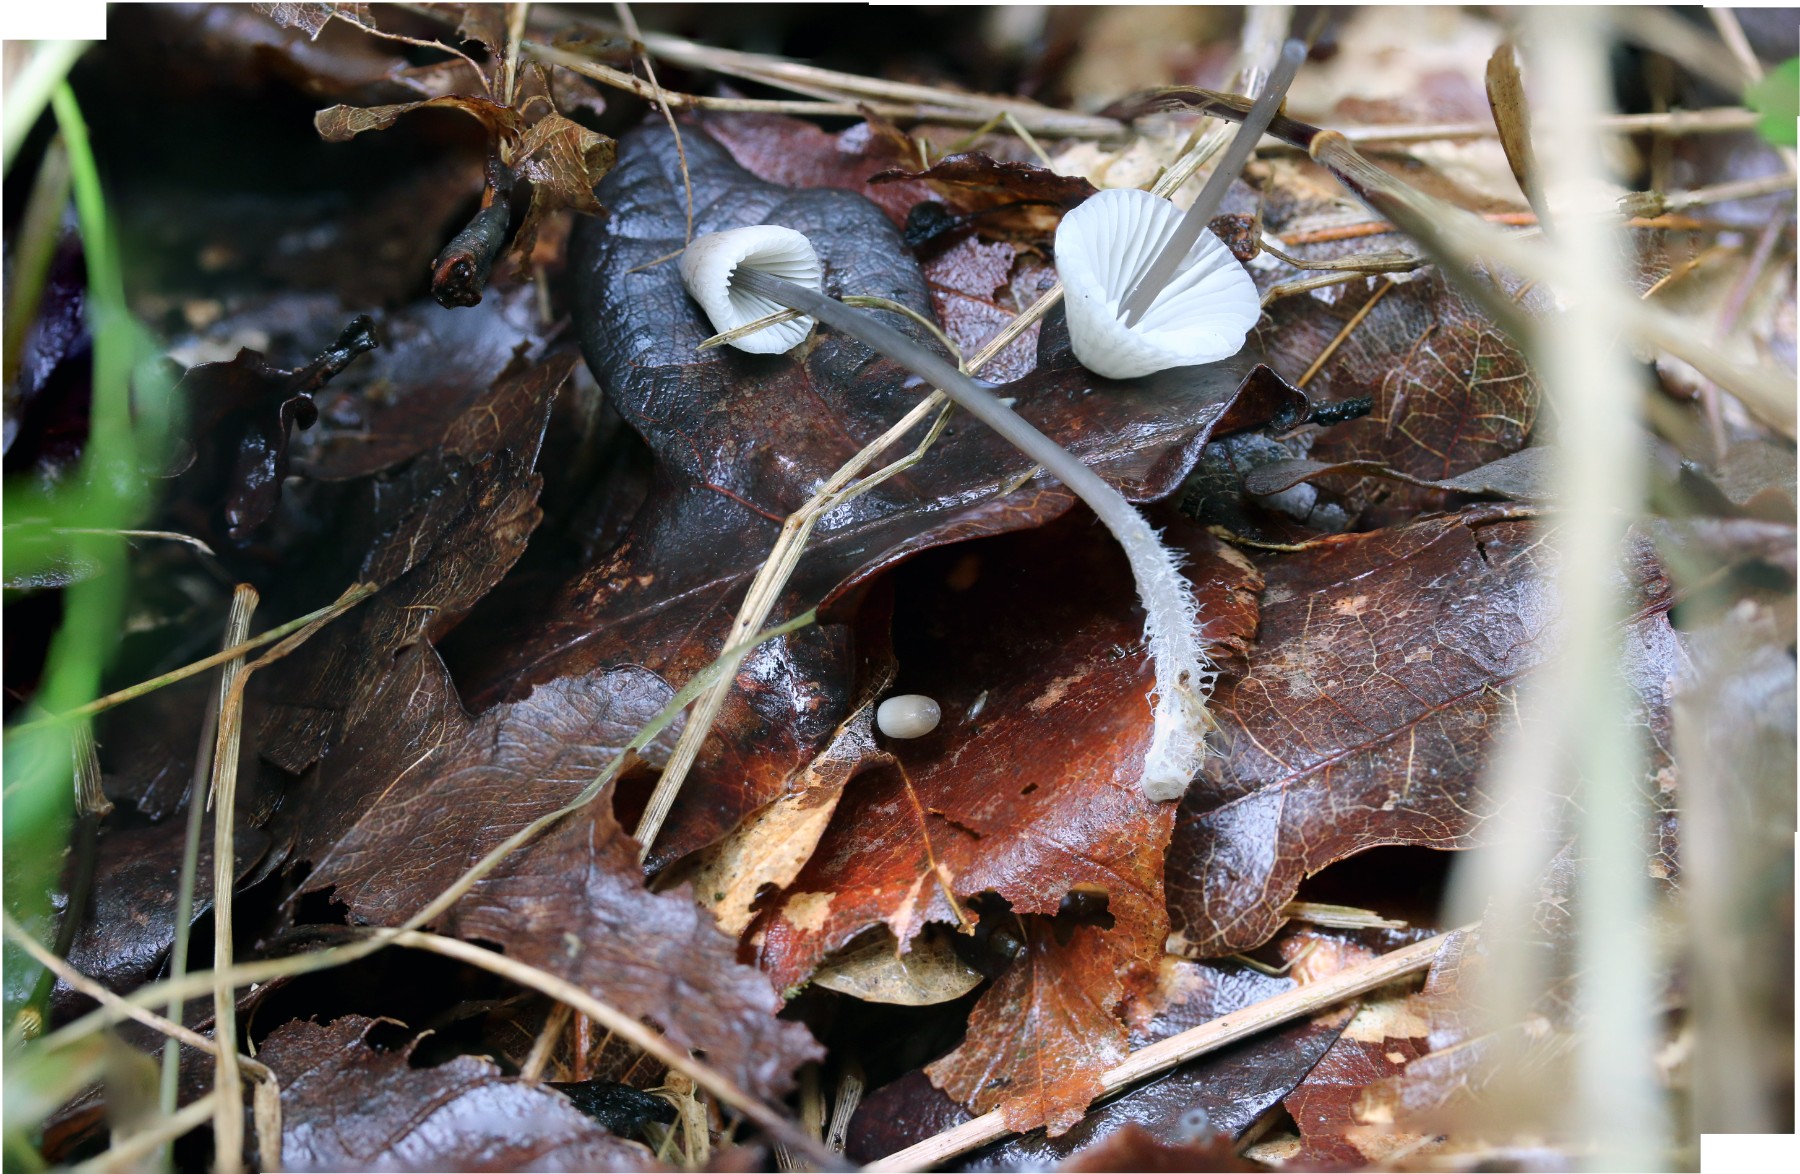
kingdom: Fungi
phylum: Basidiomycota
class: Agaricomycetes
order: Agaricales
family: Mycenaceae
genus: Mycena
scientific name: Mycena galopus
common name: hvidmælket huesvamp
